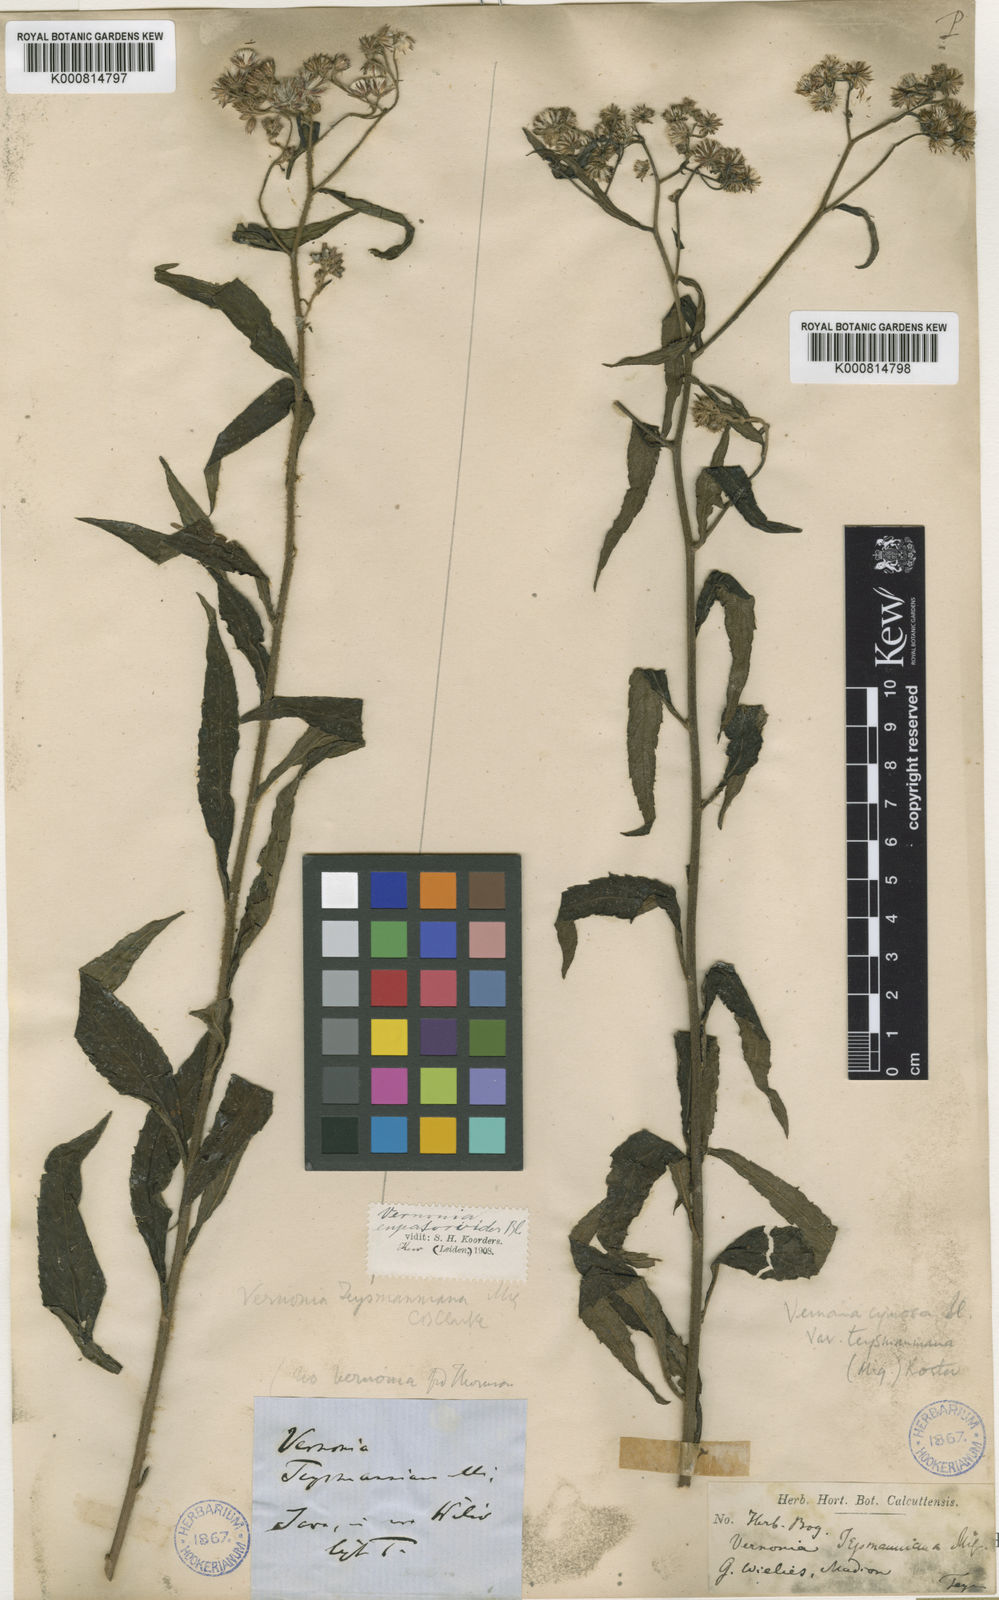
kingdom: Plantae
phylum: Tracheophyta
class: Magnoliopsida
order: Asterales
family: Asteraceae
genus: Vernonia
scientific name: Vernonia cymosa
